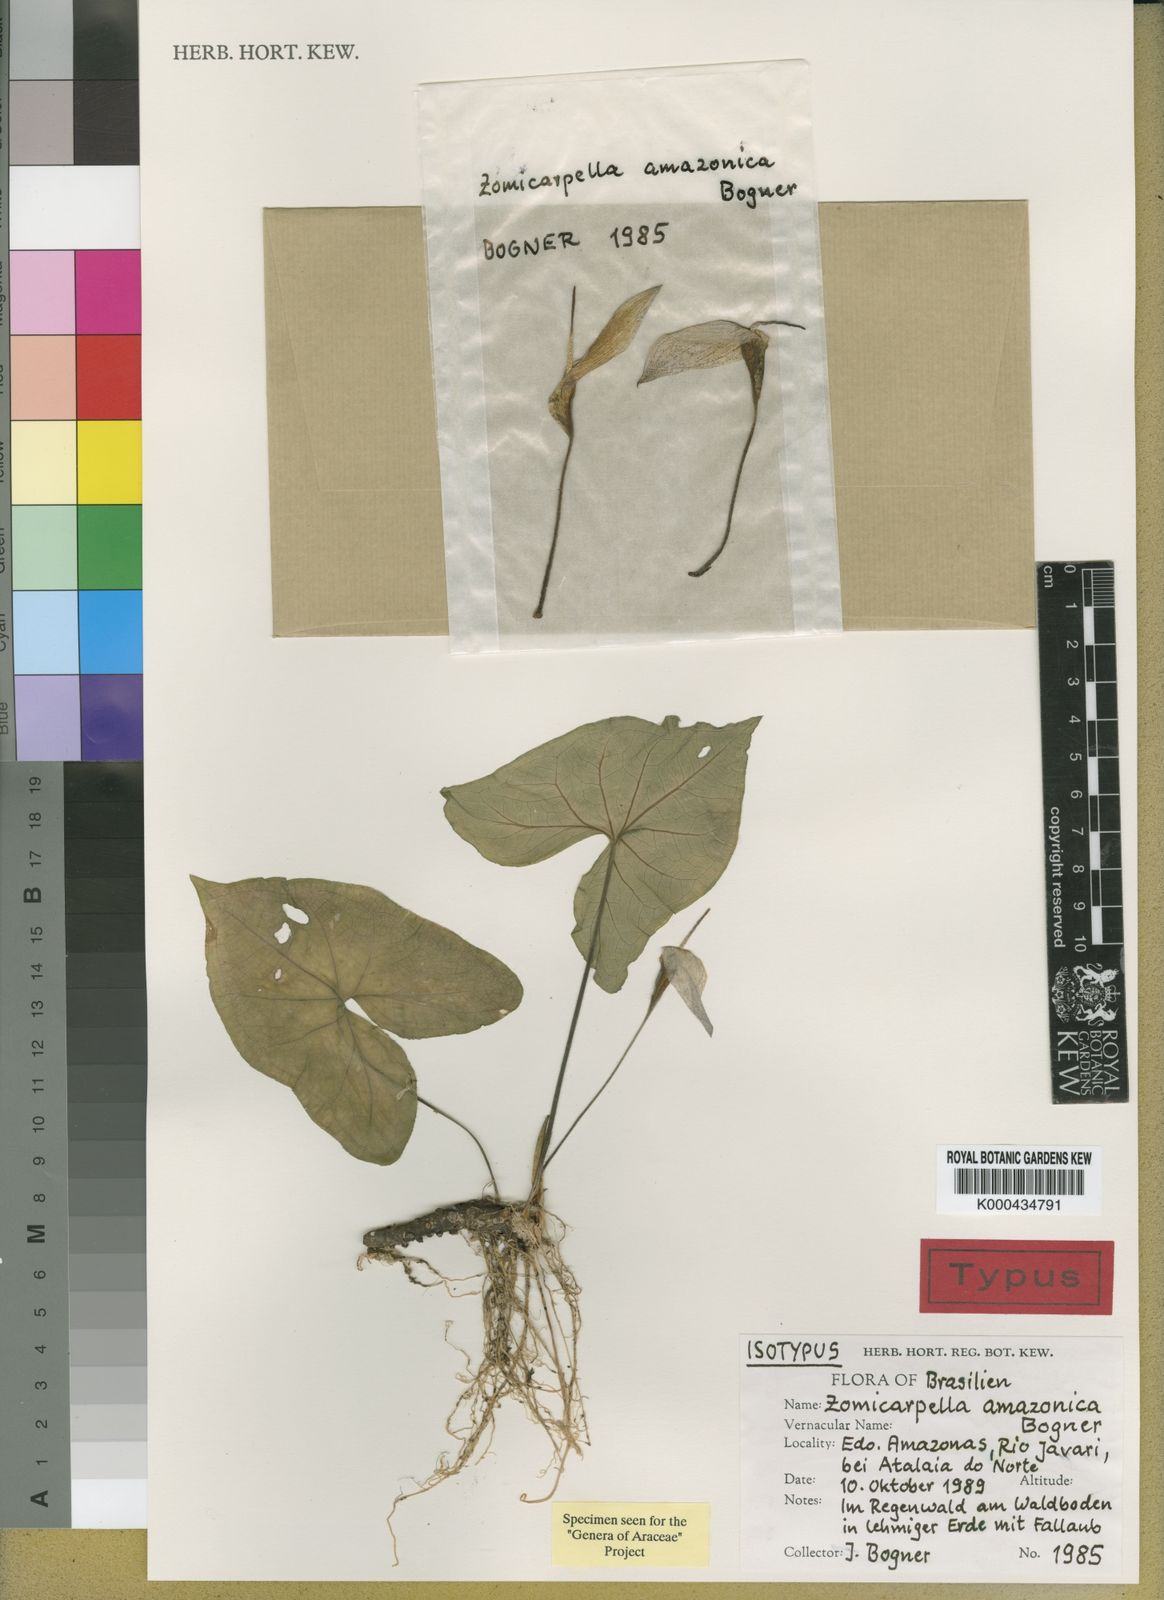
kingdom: Plantae
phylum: Tracheophyta
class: Liliopsida
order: Alismatales
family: Araceae
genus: Zomicarpella
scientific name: Zomicarpella amazonica
